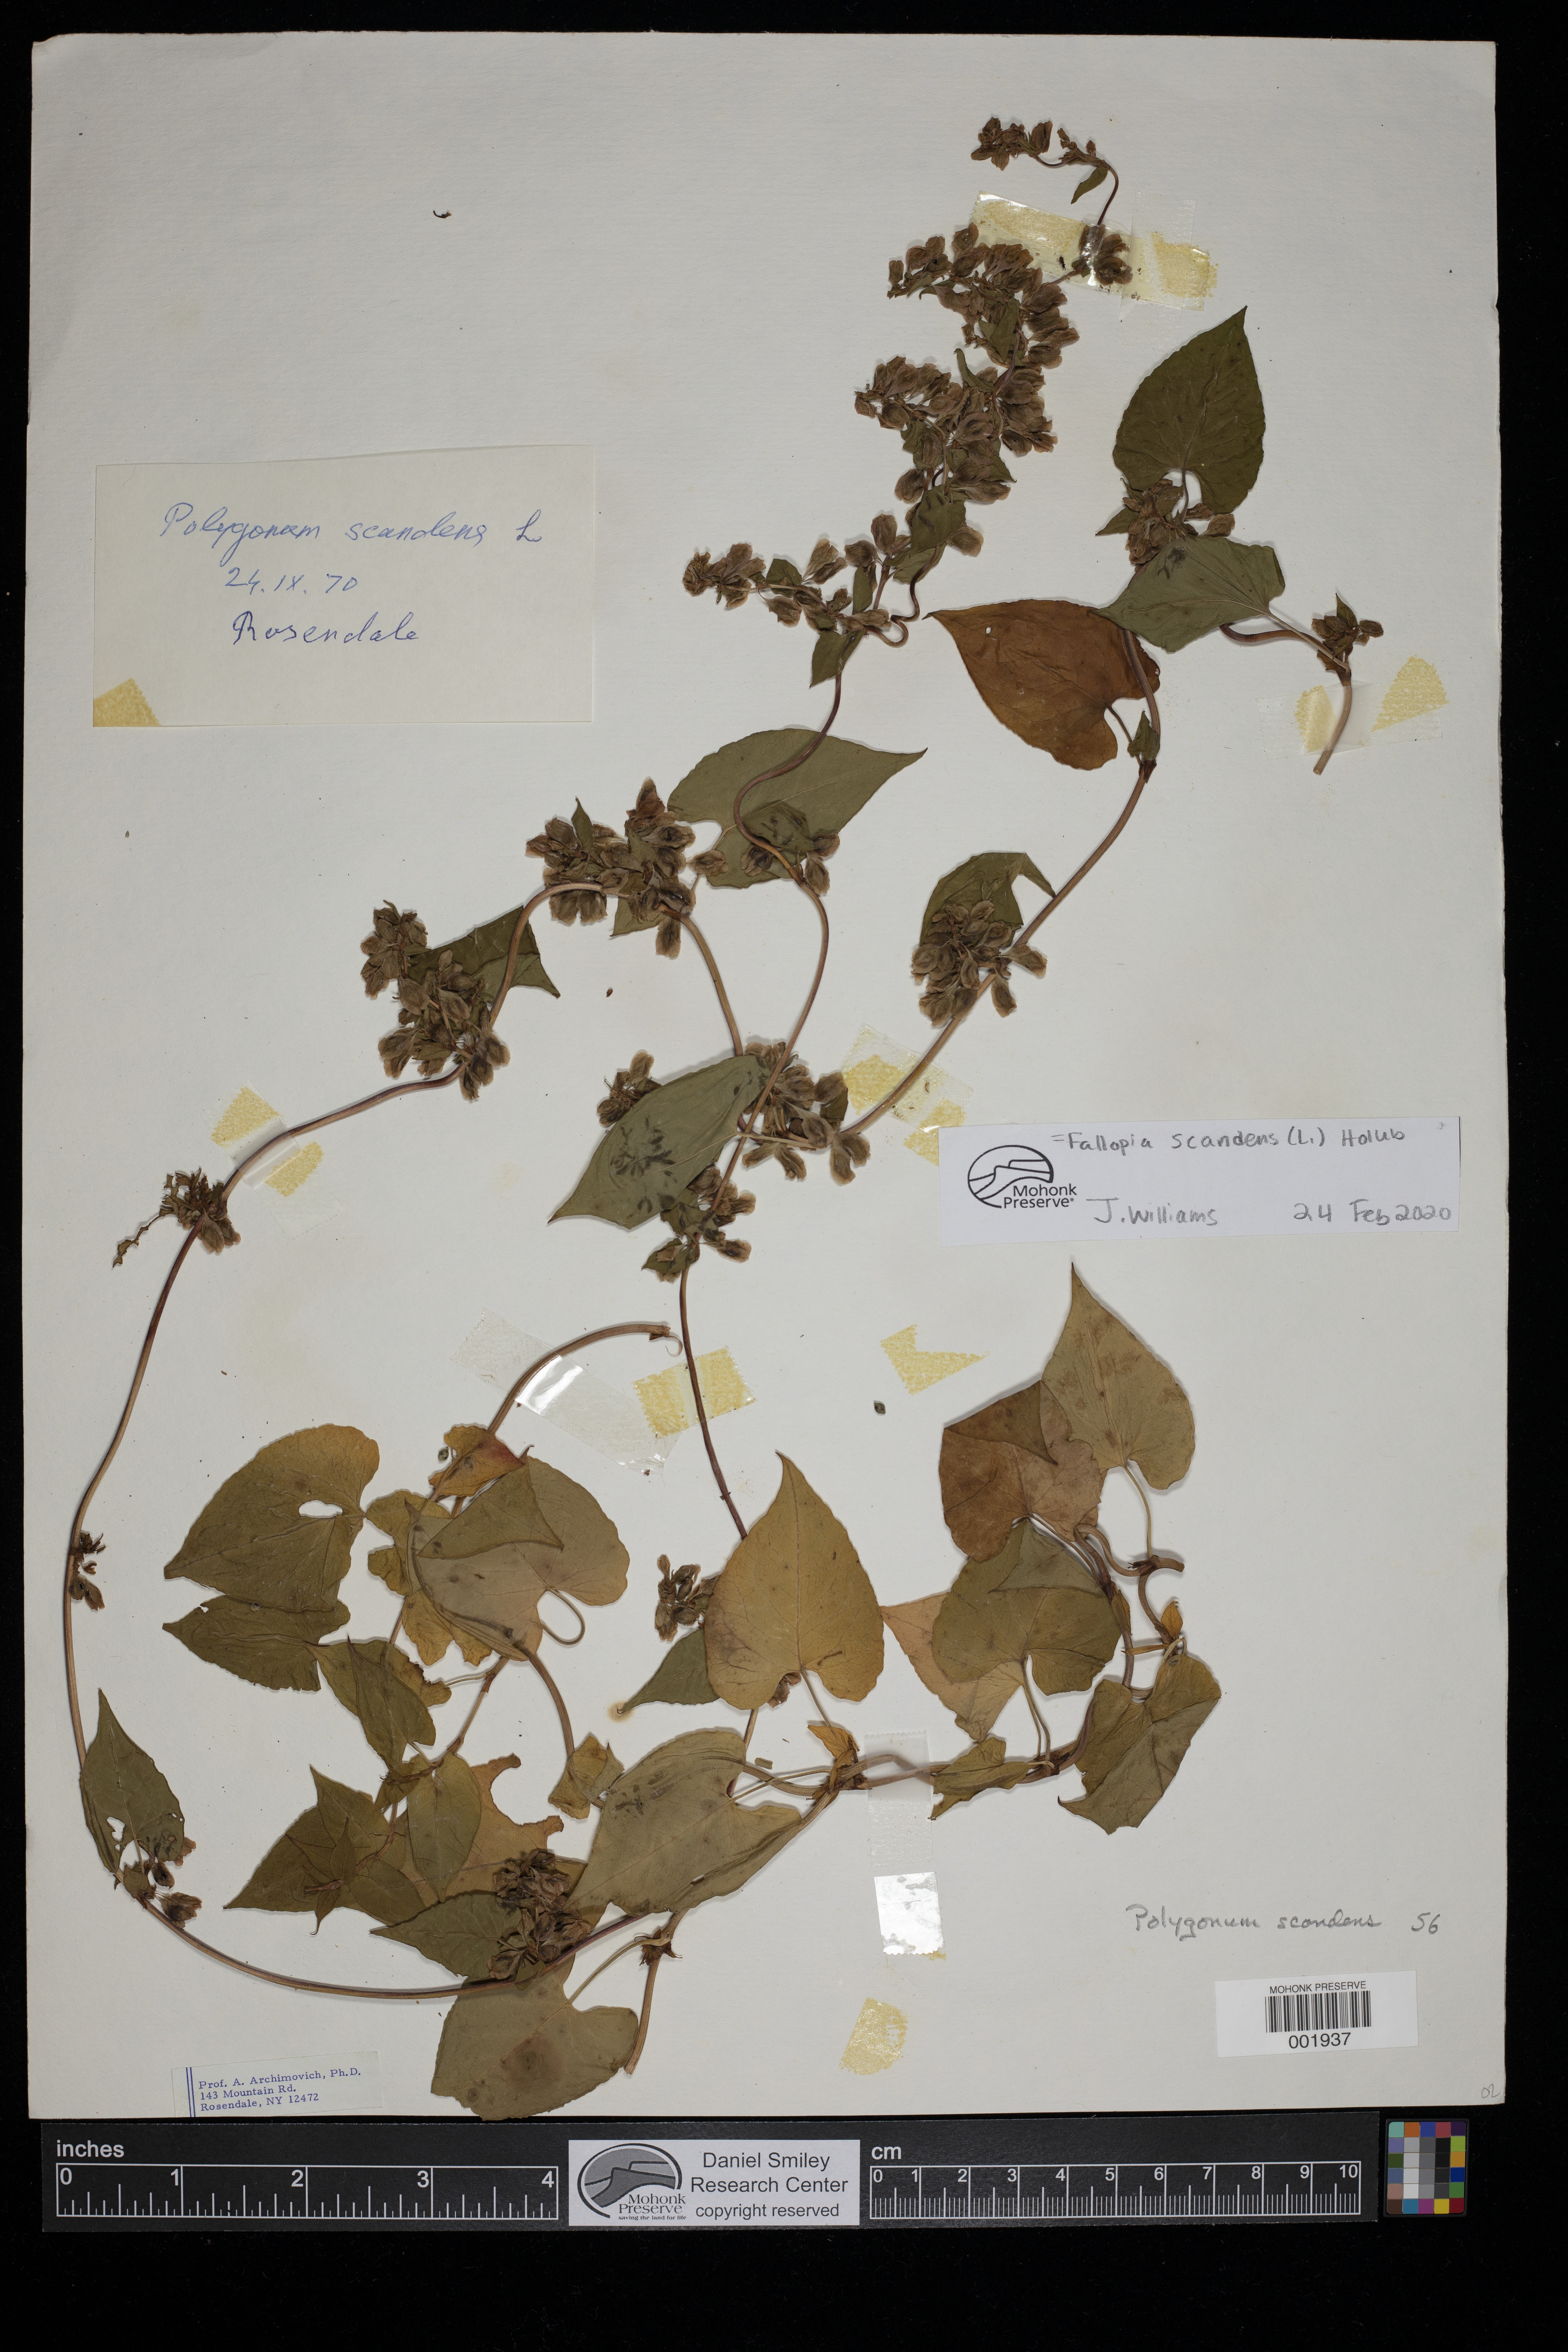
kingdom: Plantae
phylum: Tracheophyta
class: Magnoliopsida
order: Caryophyllales
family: Polygonaceae
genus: Fallopia
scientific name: Fallopia scandens
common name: Climbing false buckwheat
